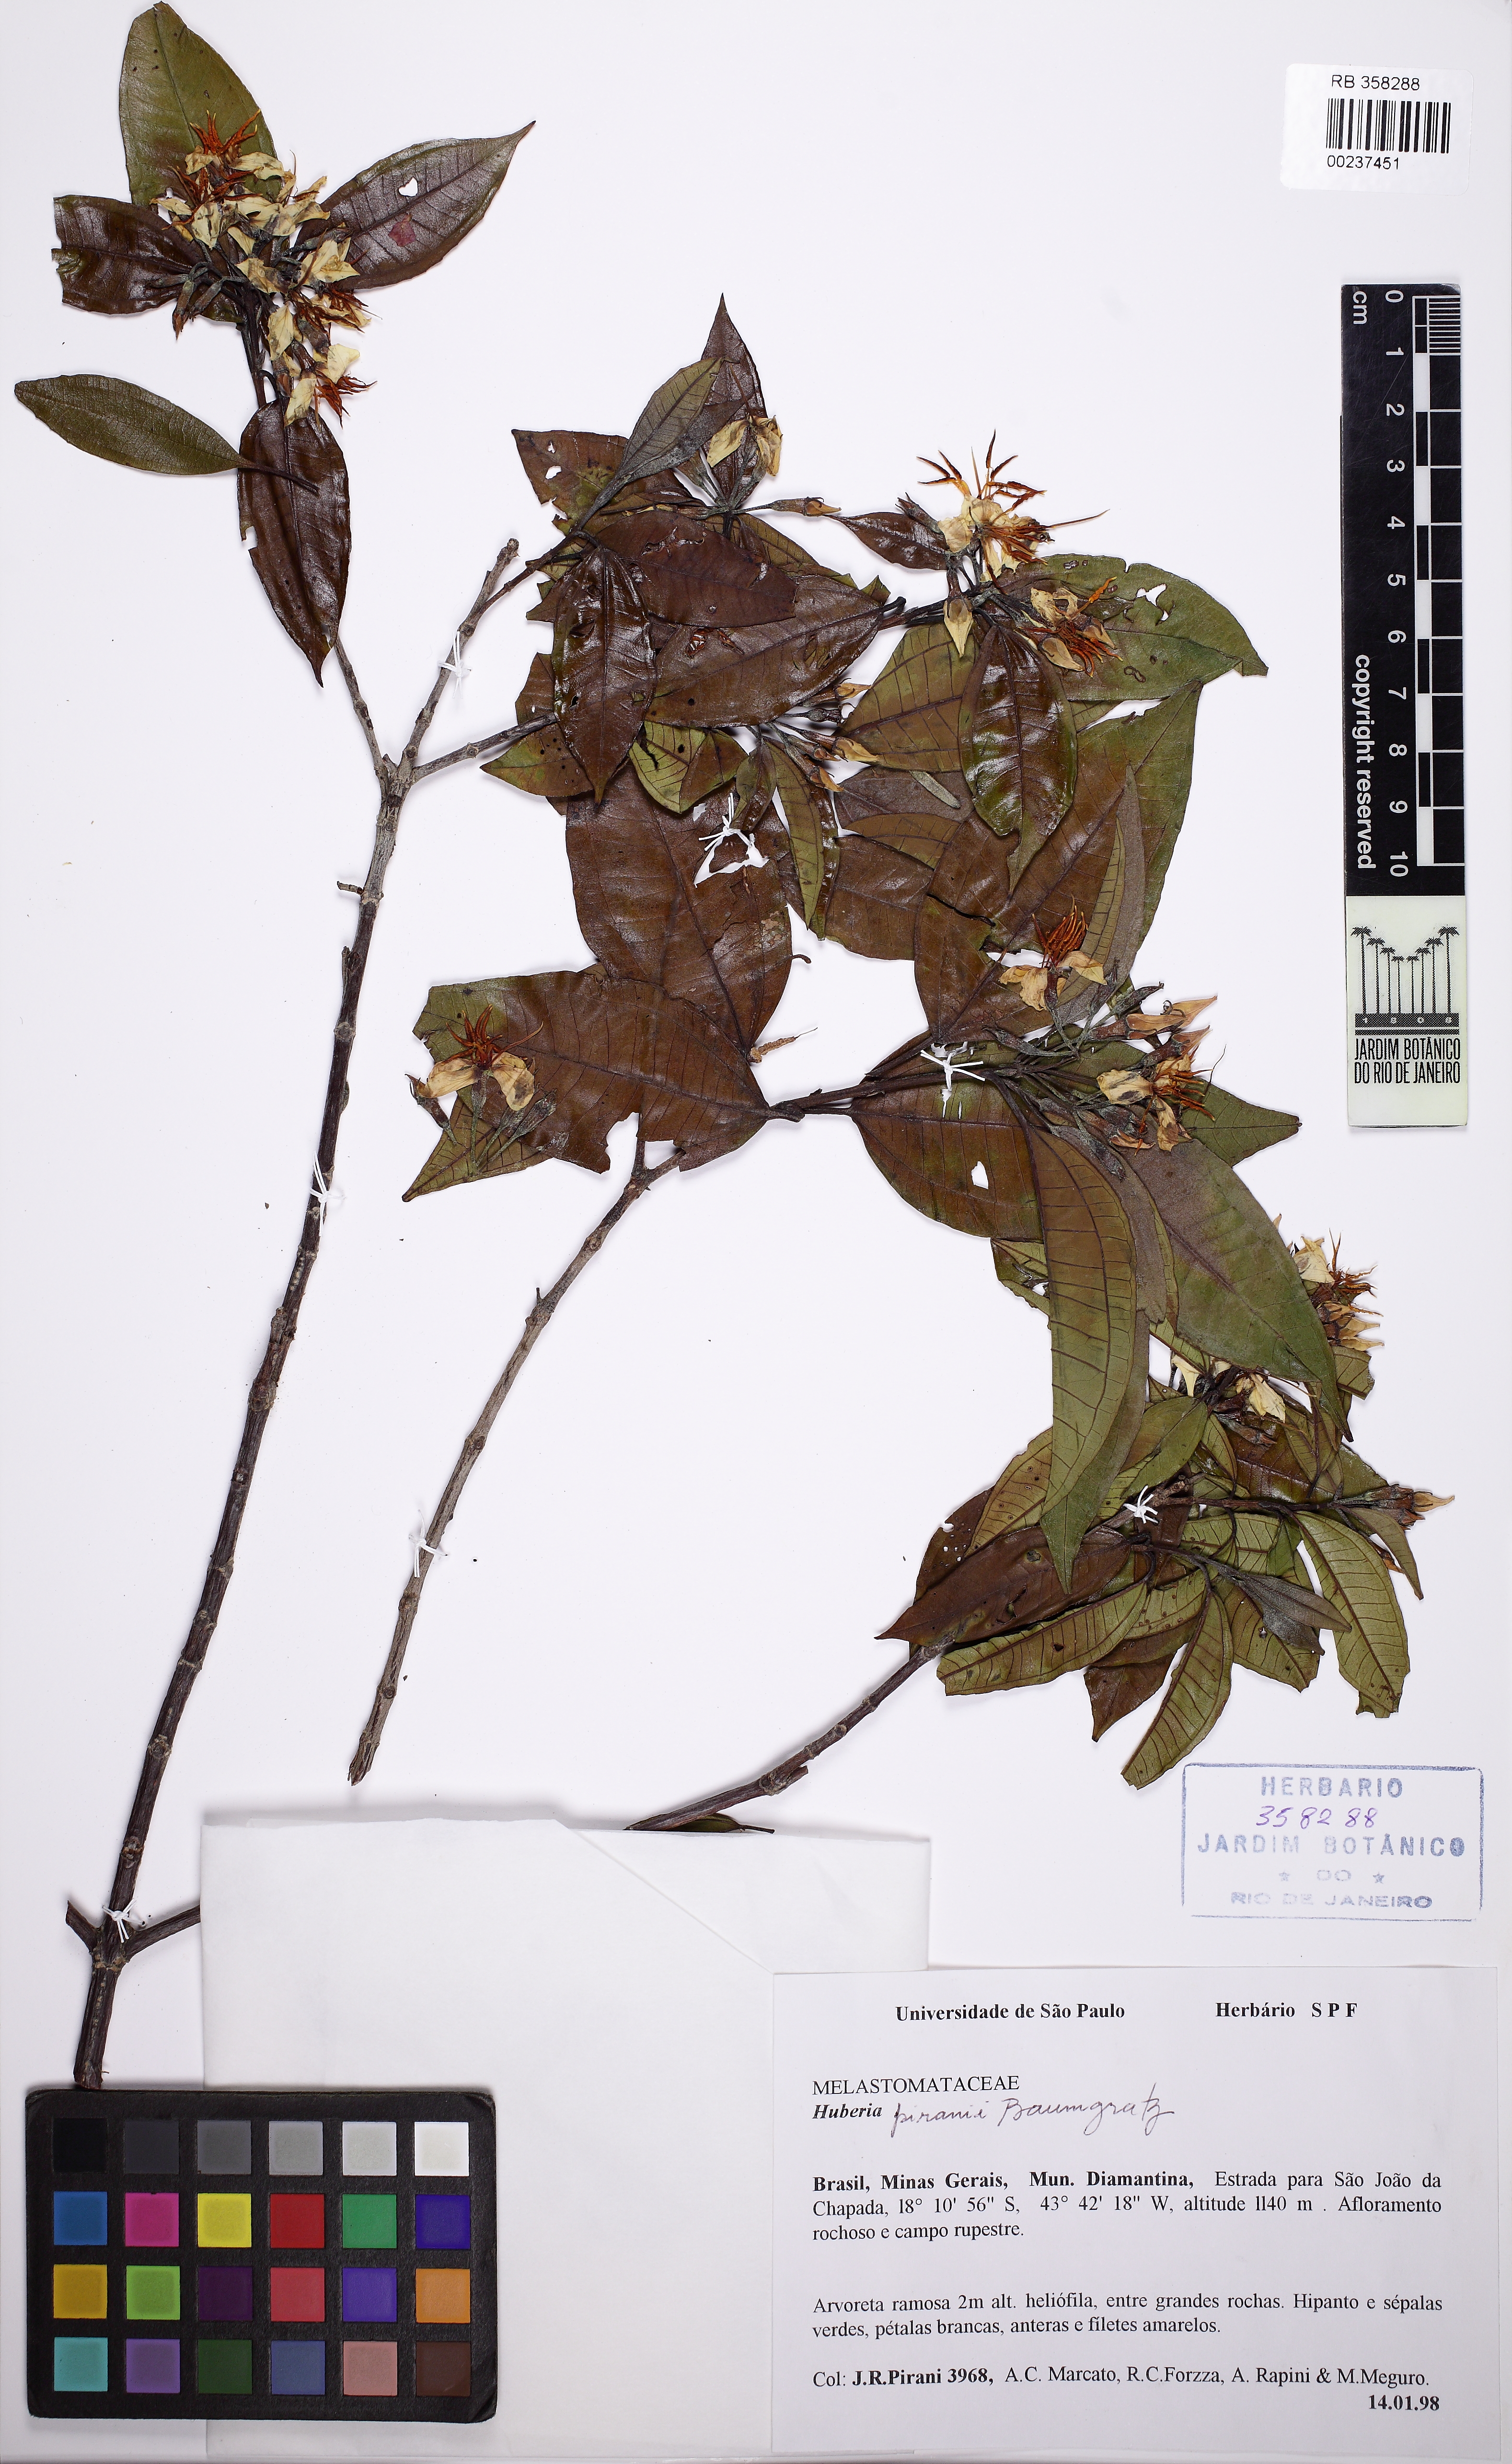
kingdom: Plantae
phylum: Tracheophyta
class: Magnoliopsida
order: Myrtales
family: Melastomataceae
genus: Huberia
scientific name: Huberia piranii
